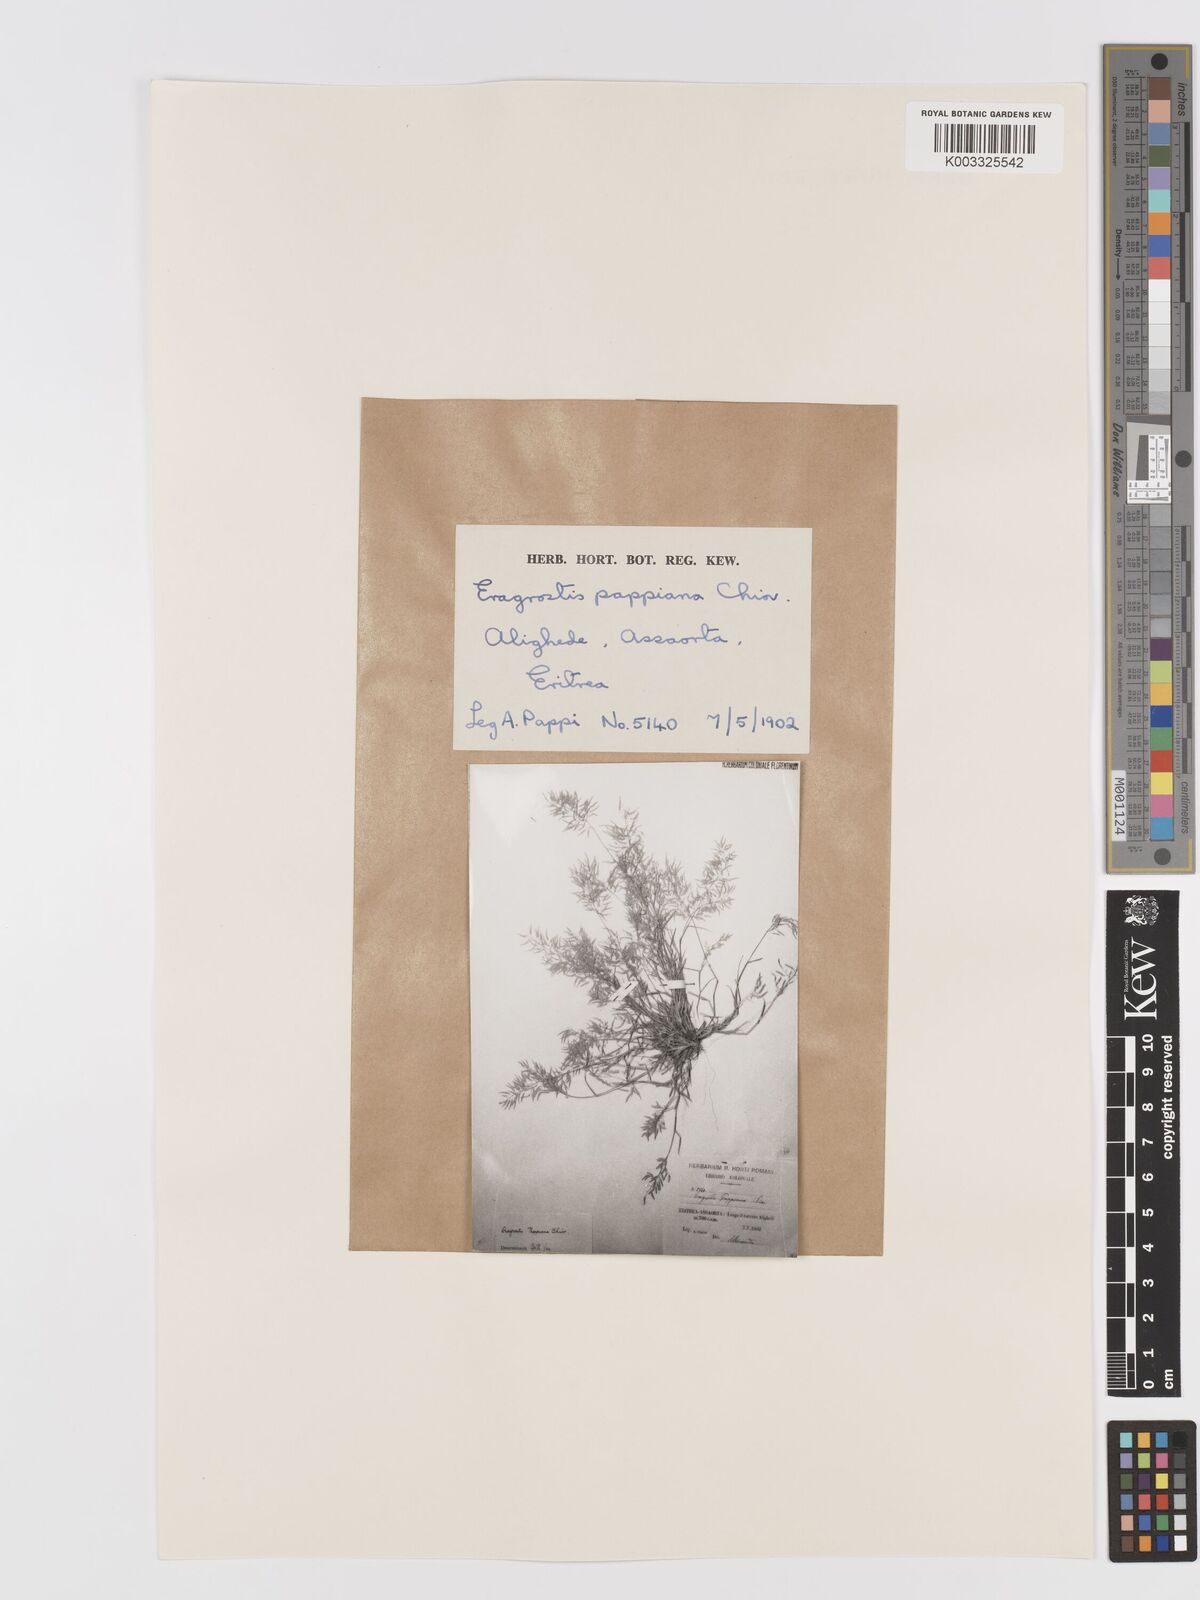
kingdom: Plantae
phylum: Tracheophyta
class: Liliopsida
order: Poales
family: Poaceae
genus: Eragrostis
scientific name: Eragrostis minor
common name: Small love-grass
